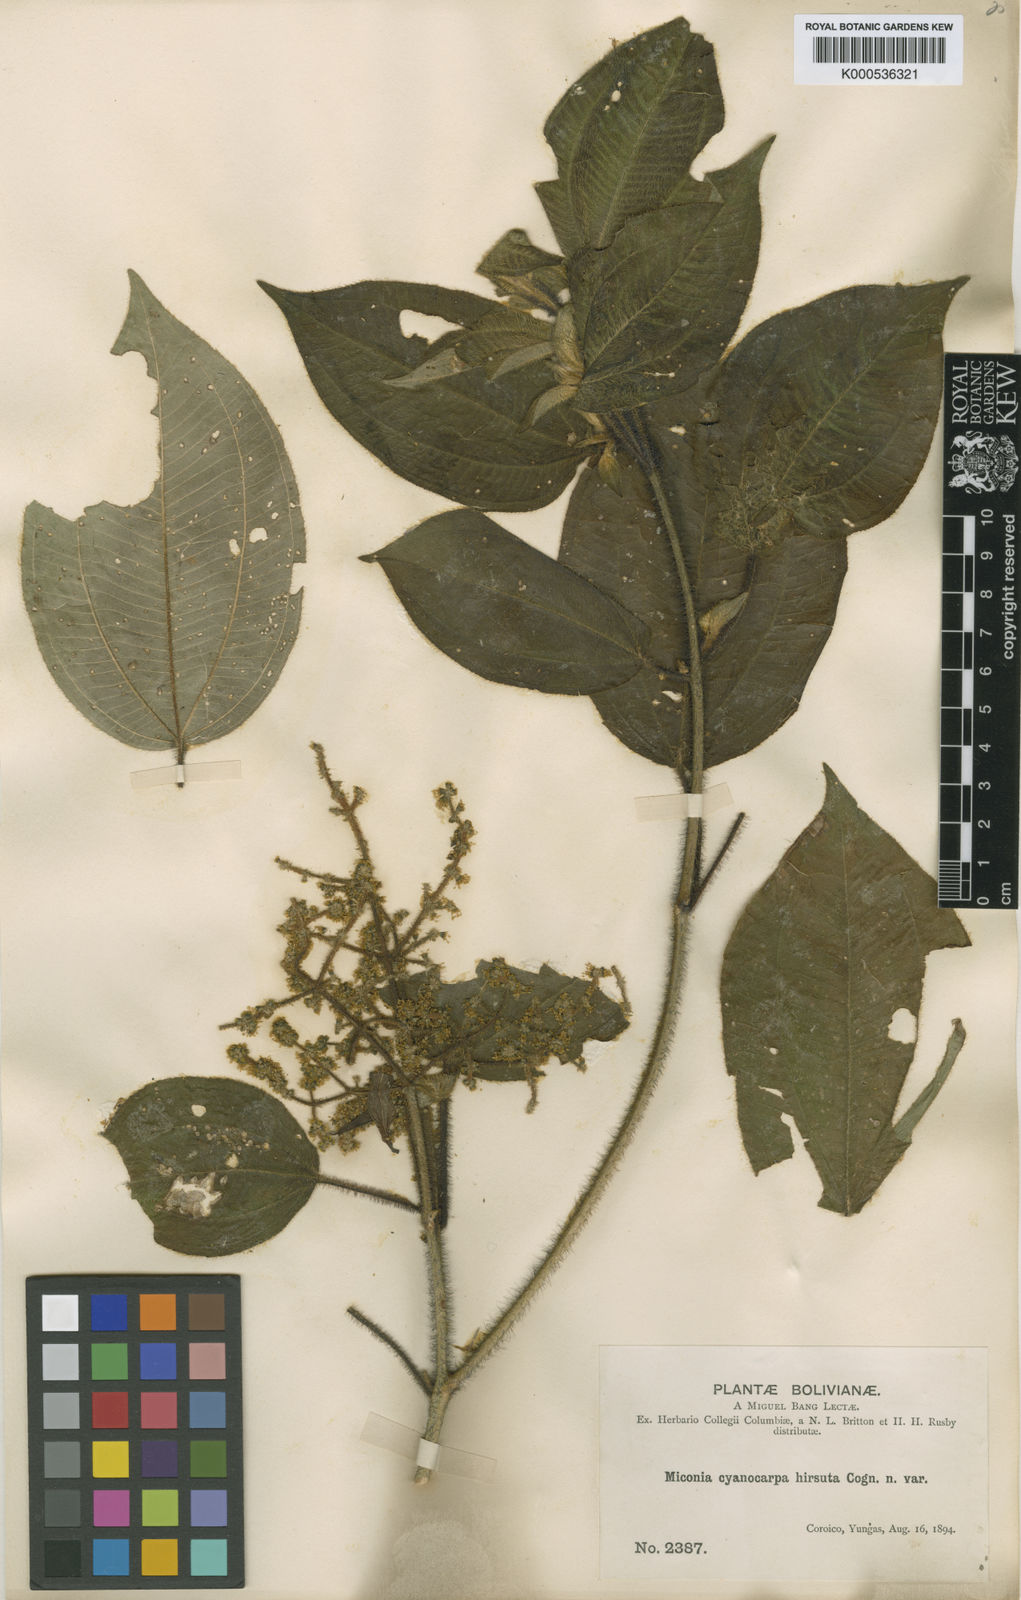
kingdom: Plantae
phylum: Tracheophyta
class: Magnoliopsida
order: Myrtales
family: Melastomataceae
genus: Miconia
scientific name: Miconia cyanocarpa
